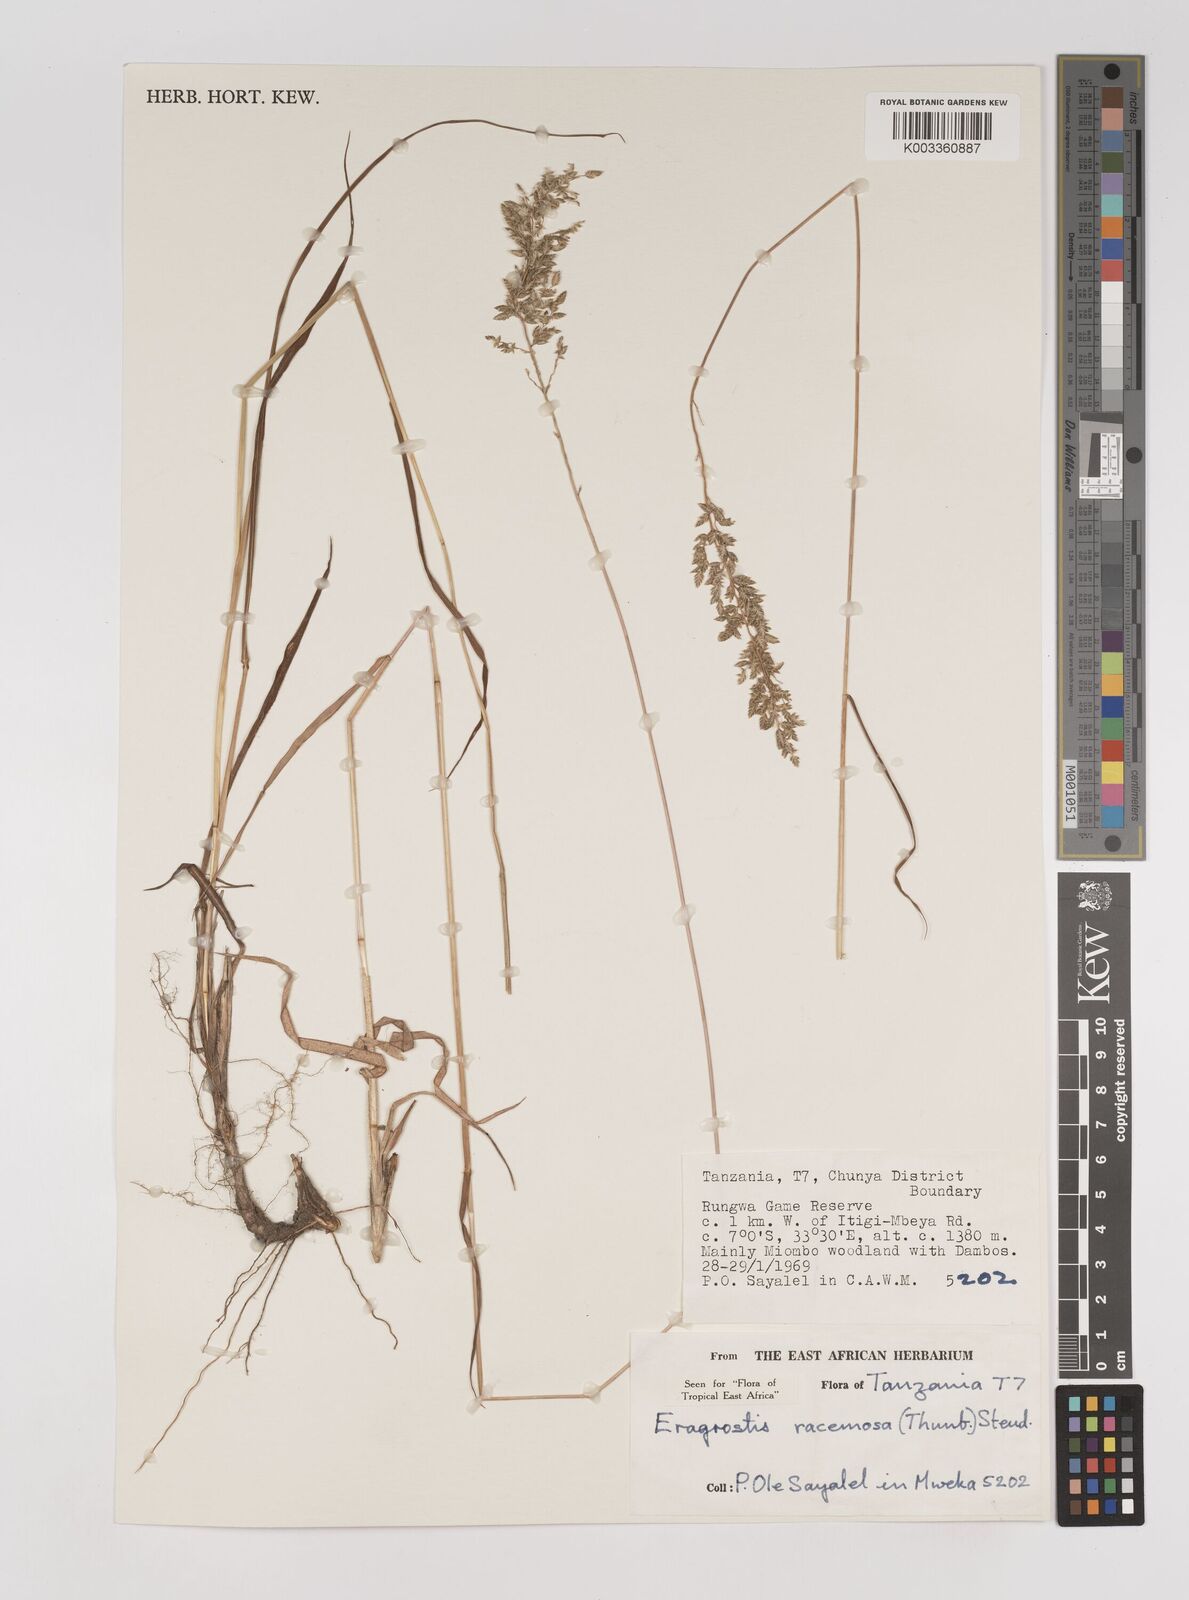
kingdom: Plantae
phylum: Tracheophyta
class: Liliopsida
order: Poales
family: Poaceae
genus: Eragrostis
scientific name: Eragrostis racemosa
